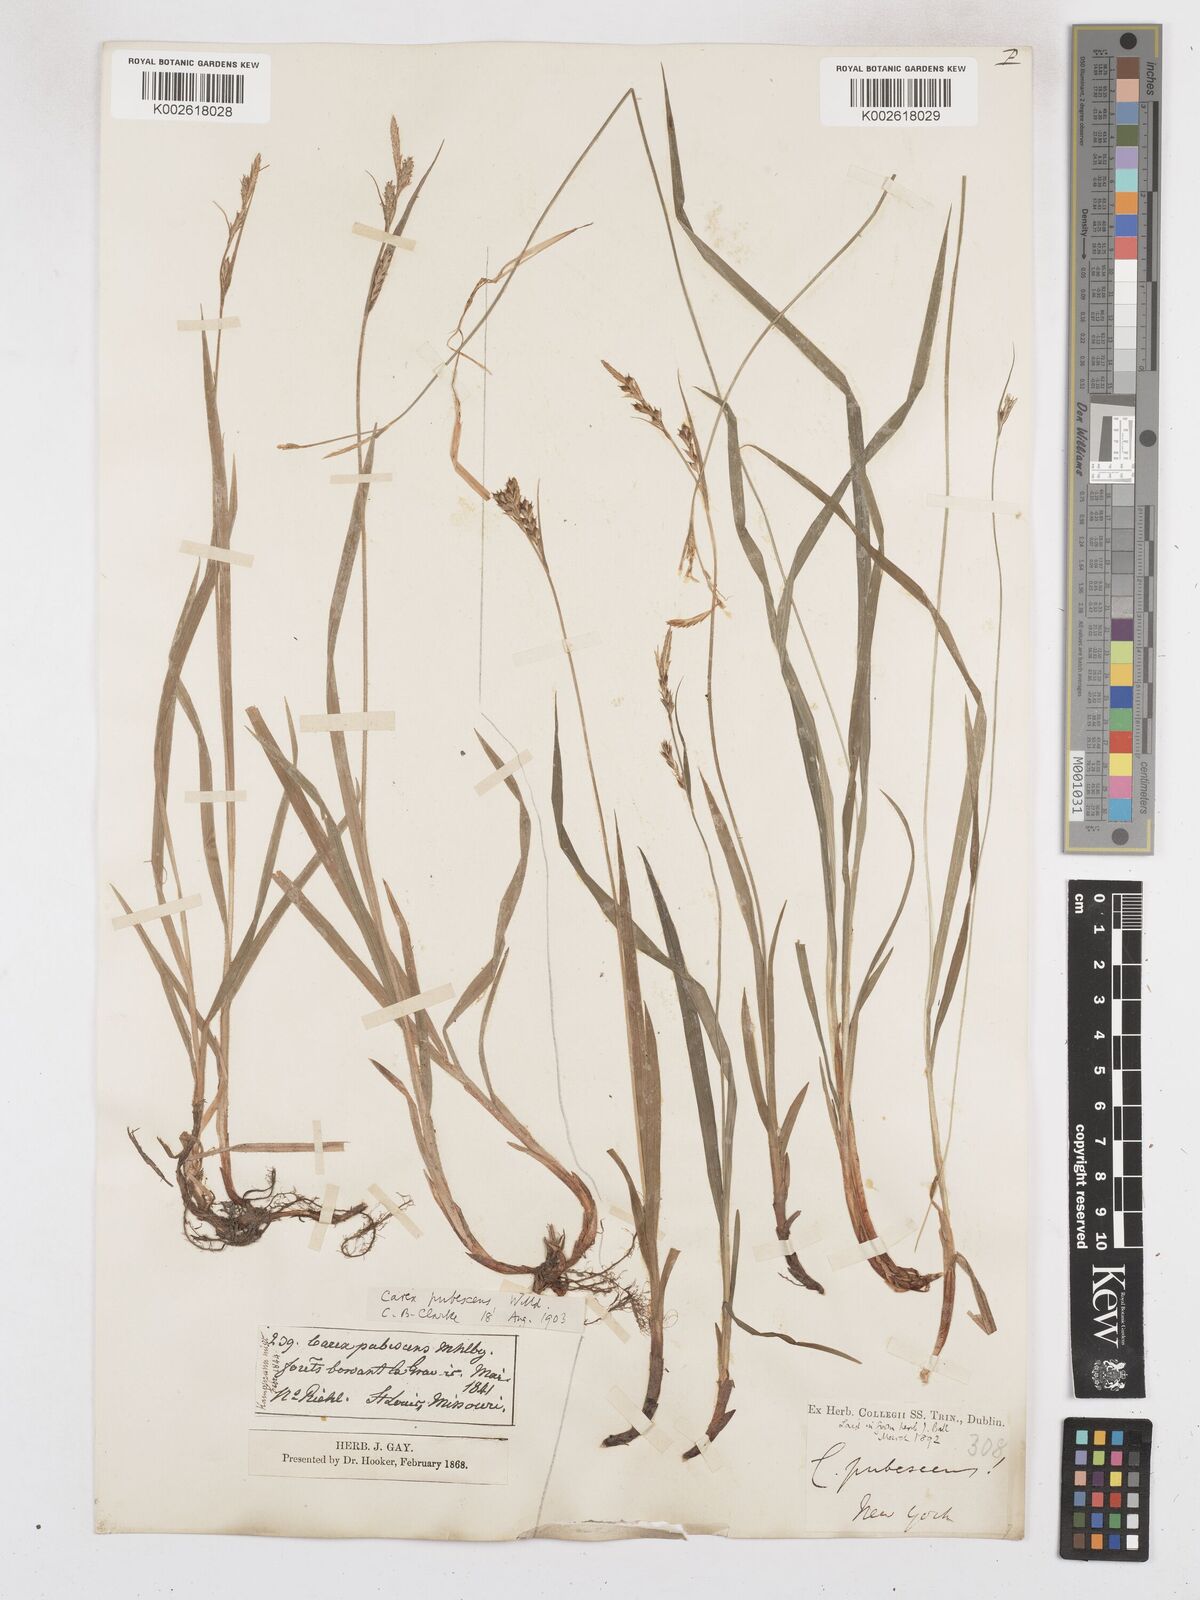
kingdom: Plantae
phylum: Tracheophyta
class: Liliopsida
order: Poales
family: Cyperaceae
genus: Carex
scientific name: Carex hirtifolia
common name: Hairy sedge
